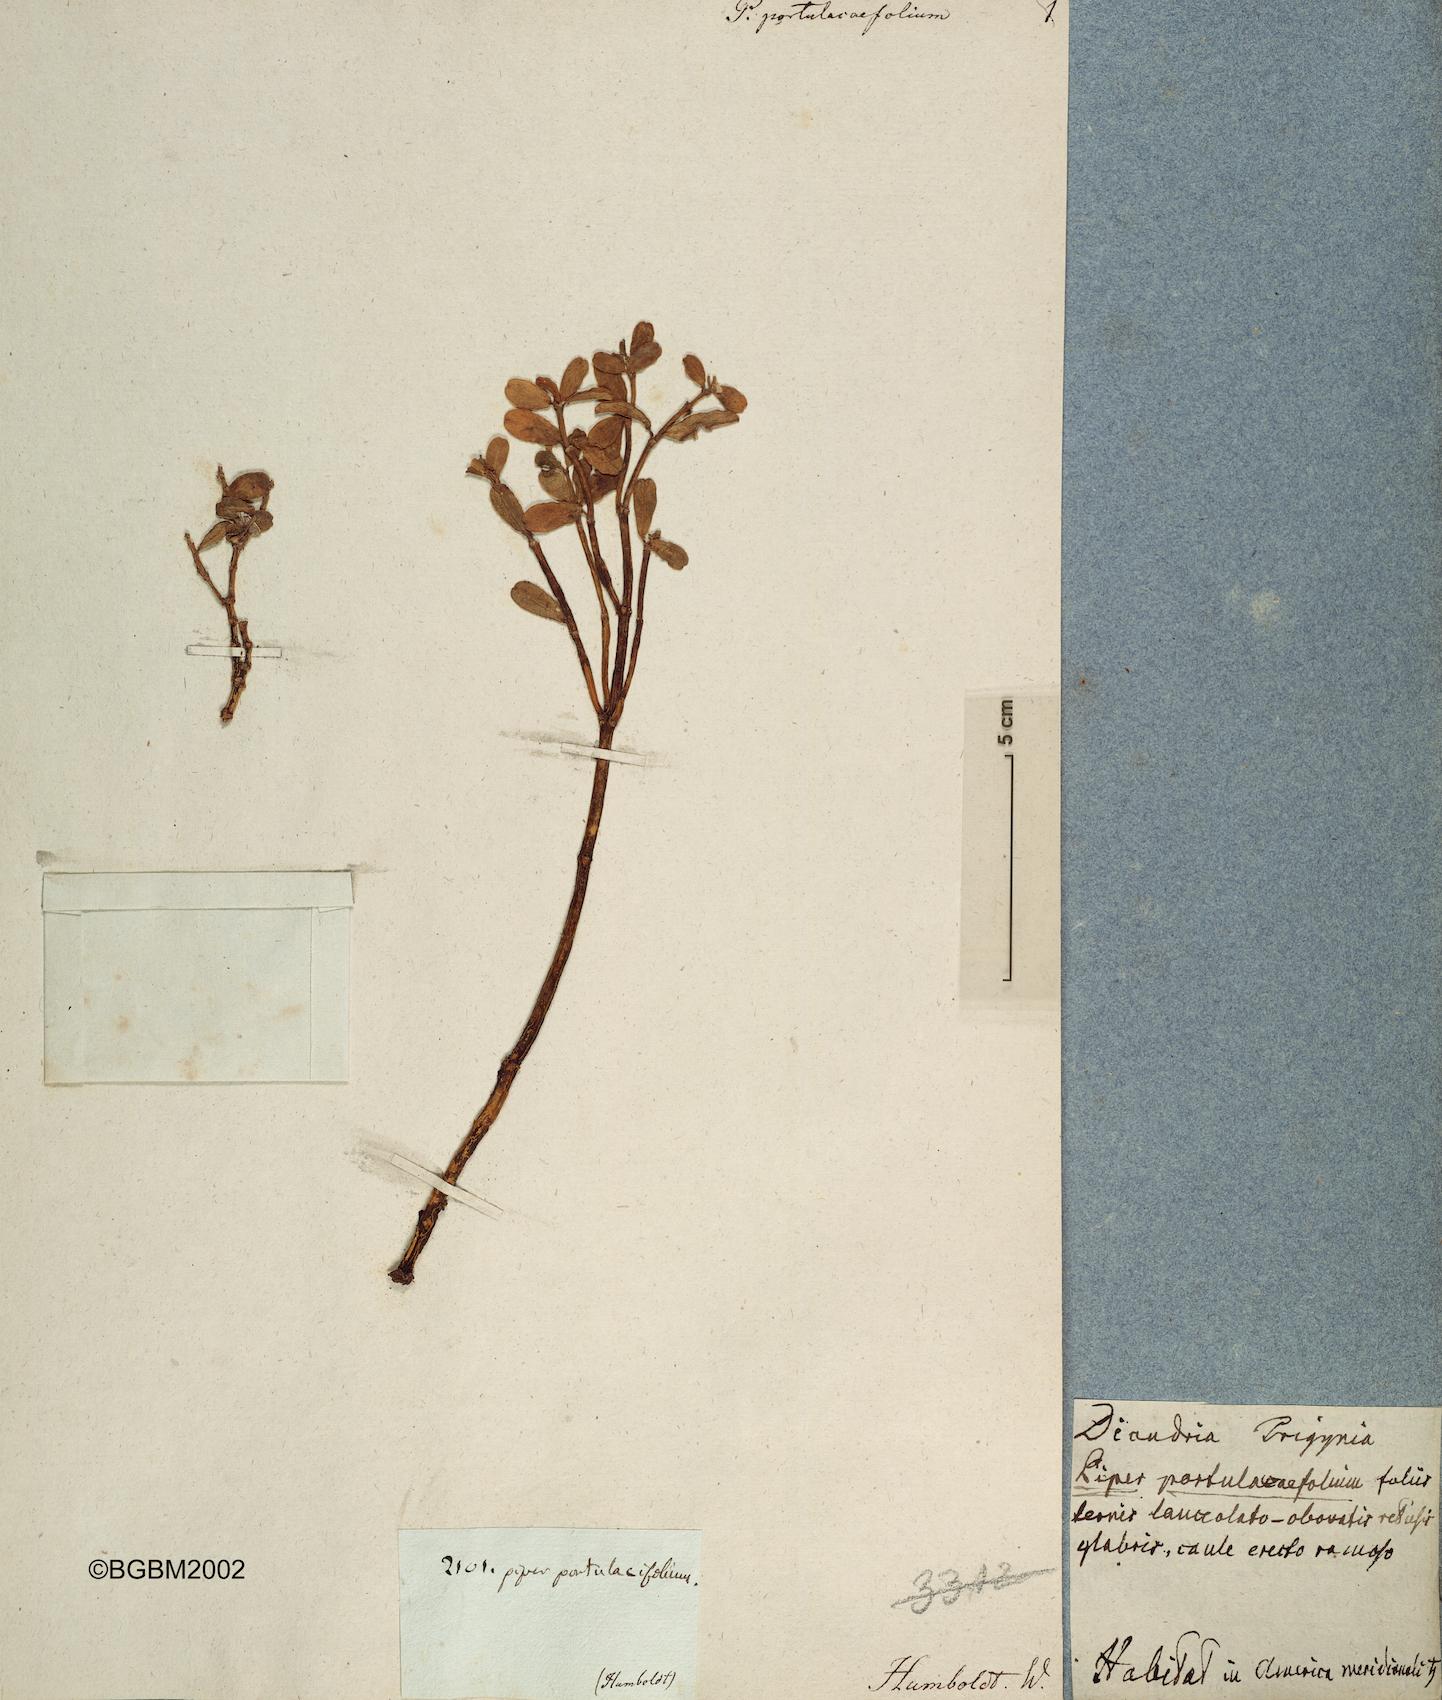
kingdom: Plantae
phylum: Tracheophyta
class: Magnoliopsida
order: Piperales
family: Piperaceae
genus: Peperomia
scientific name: Peperomia quadrifolia
